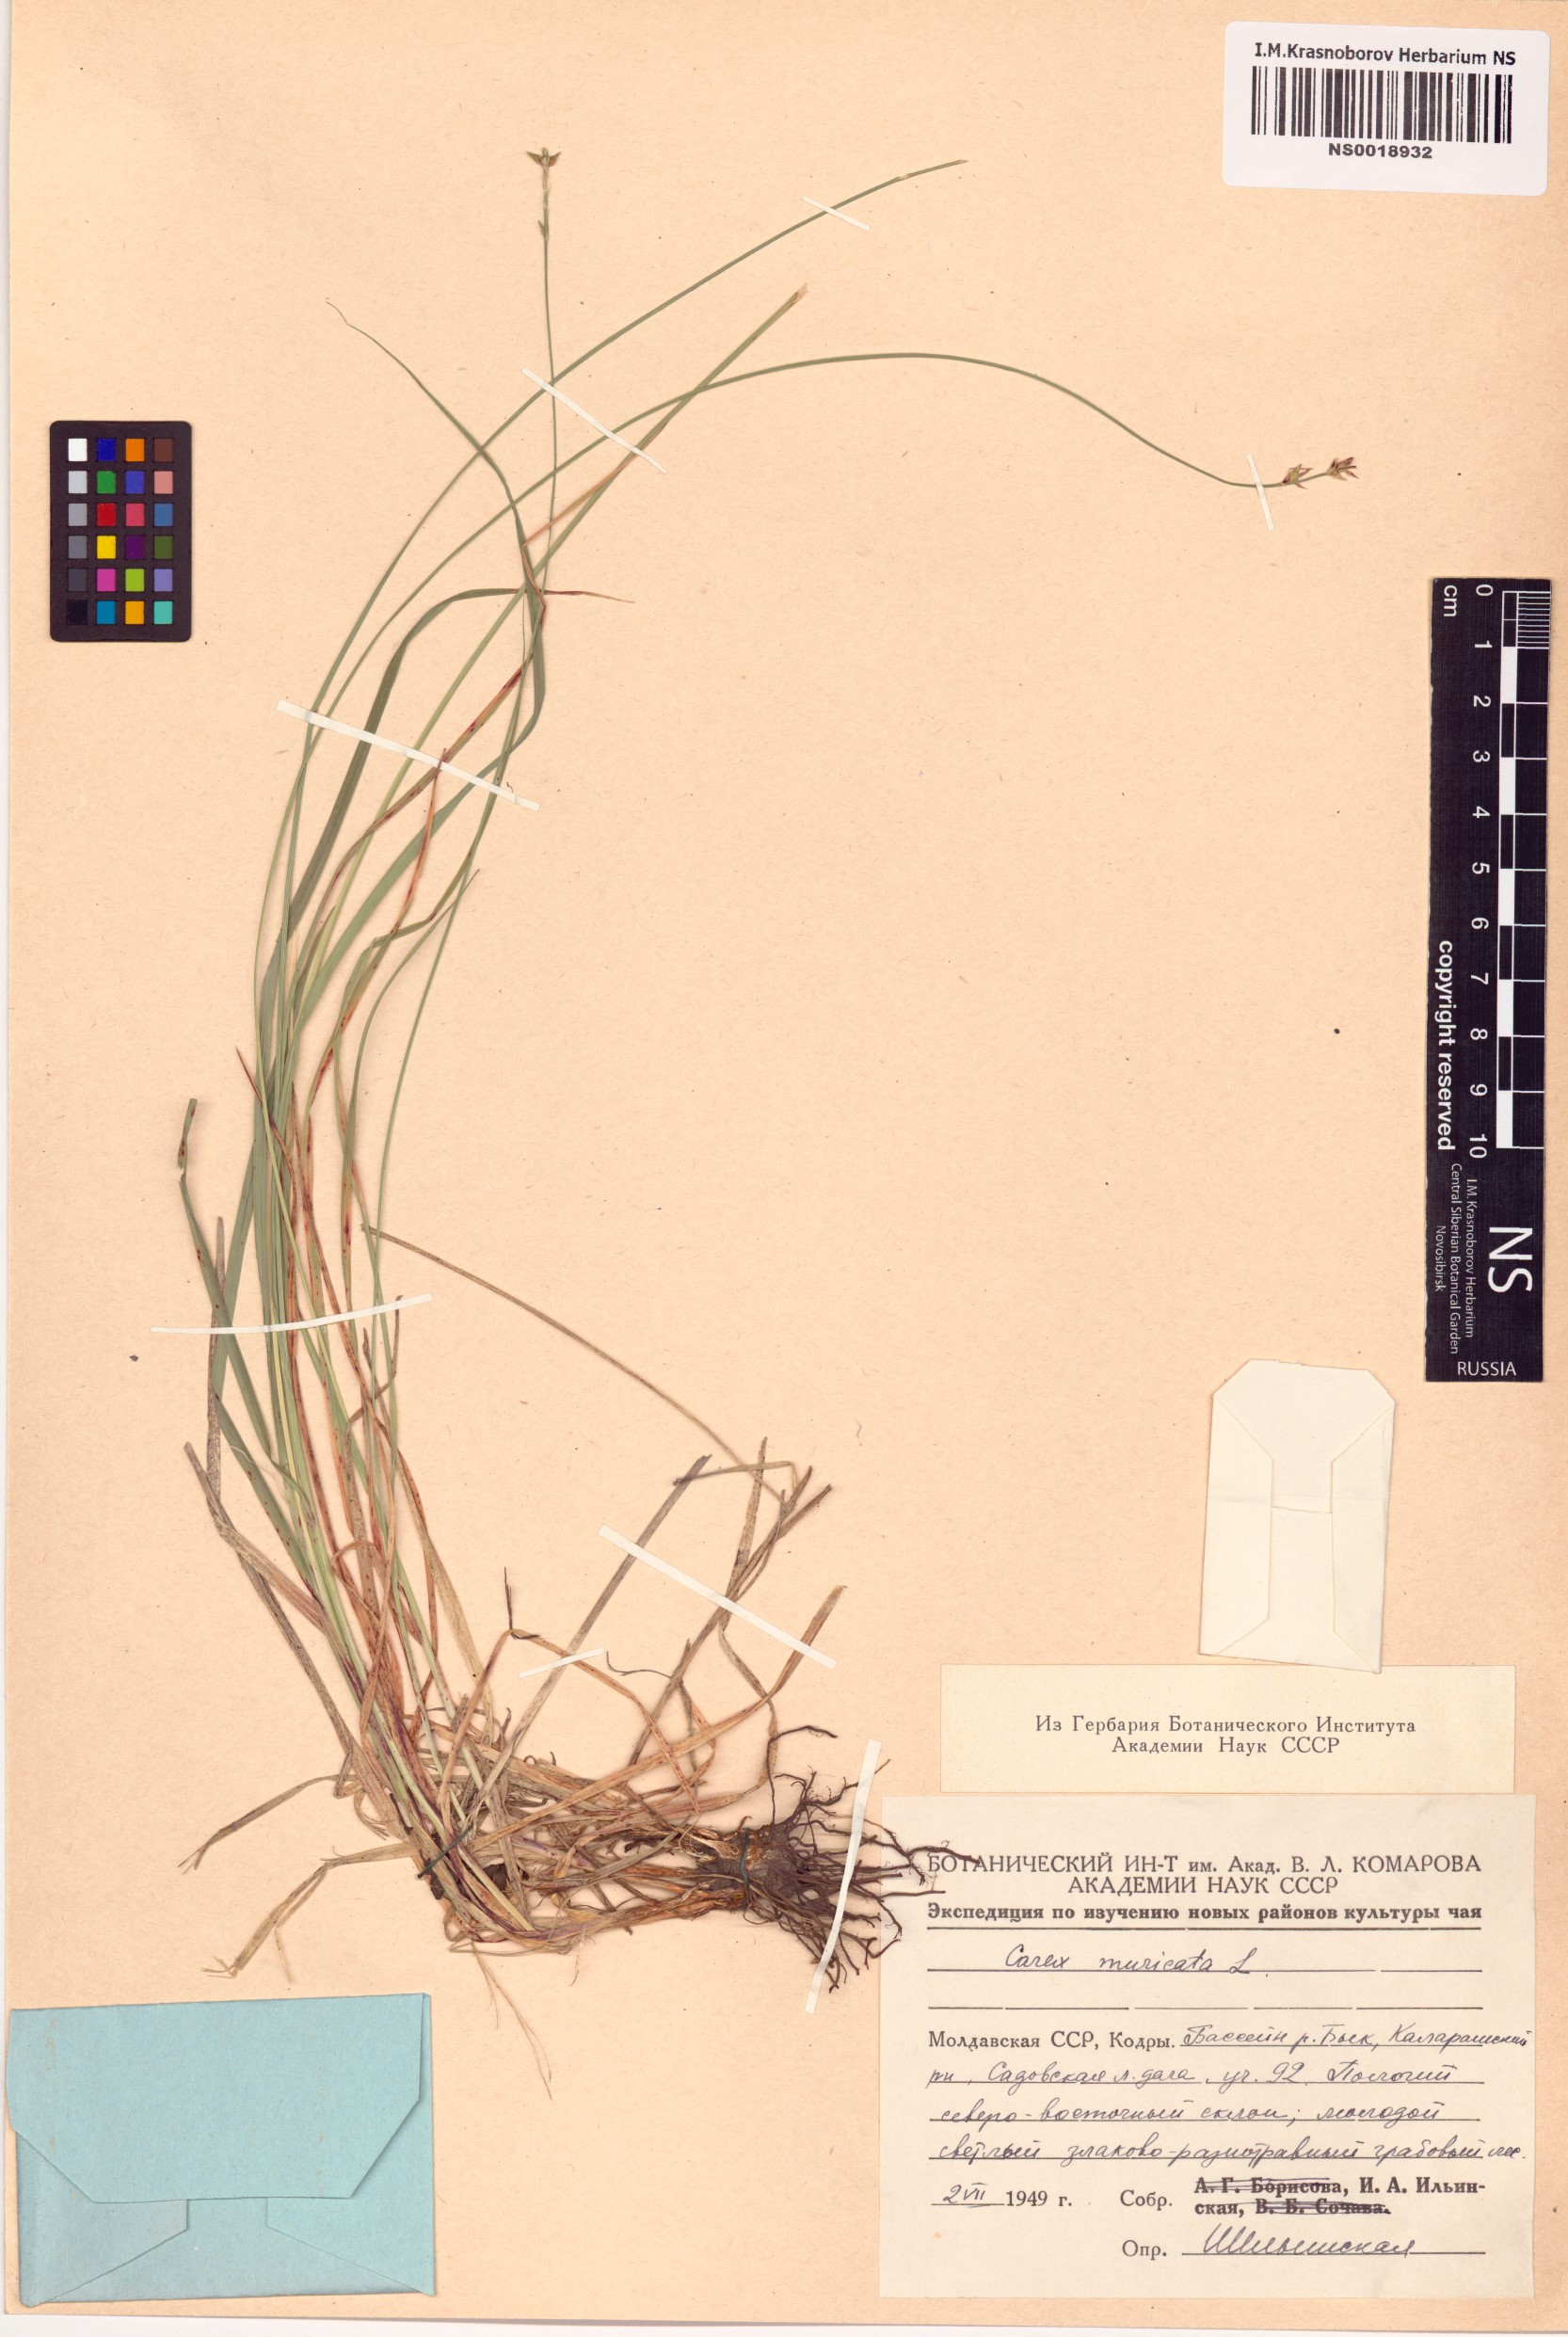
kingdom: Plantae
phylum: Tracheophyta
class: Liliopsida
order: Poales
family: Cyperaceae
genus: Carex
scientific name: Carex muricata
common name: Rough sedge
